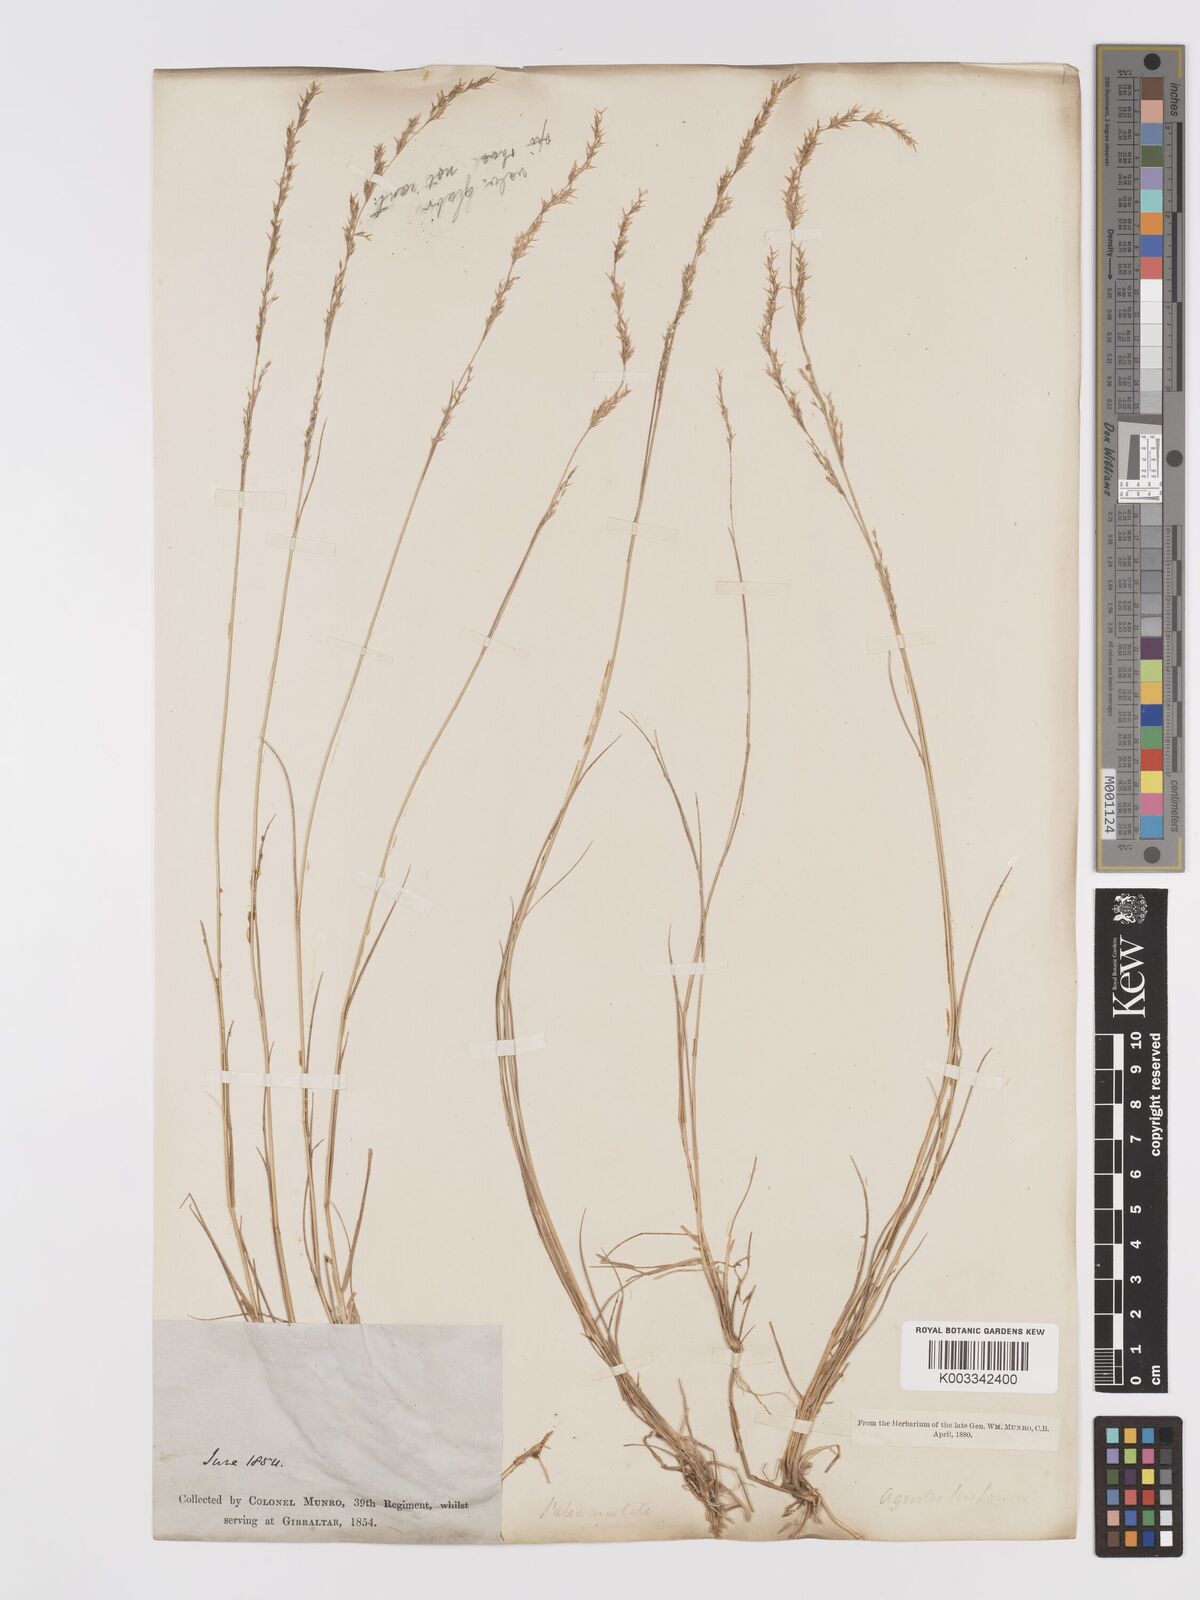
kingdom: Plantae
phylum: Tracheophyta
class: Liliopsida
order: Poales
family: Poaceae
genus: Agrostis
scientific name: Agrostis castellana
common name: Highland bent
